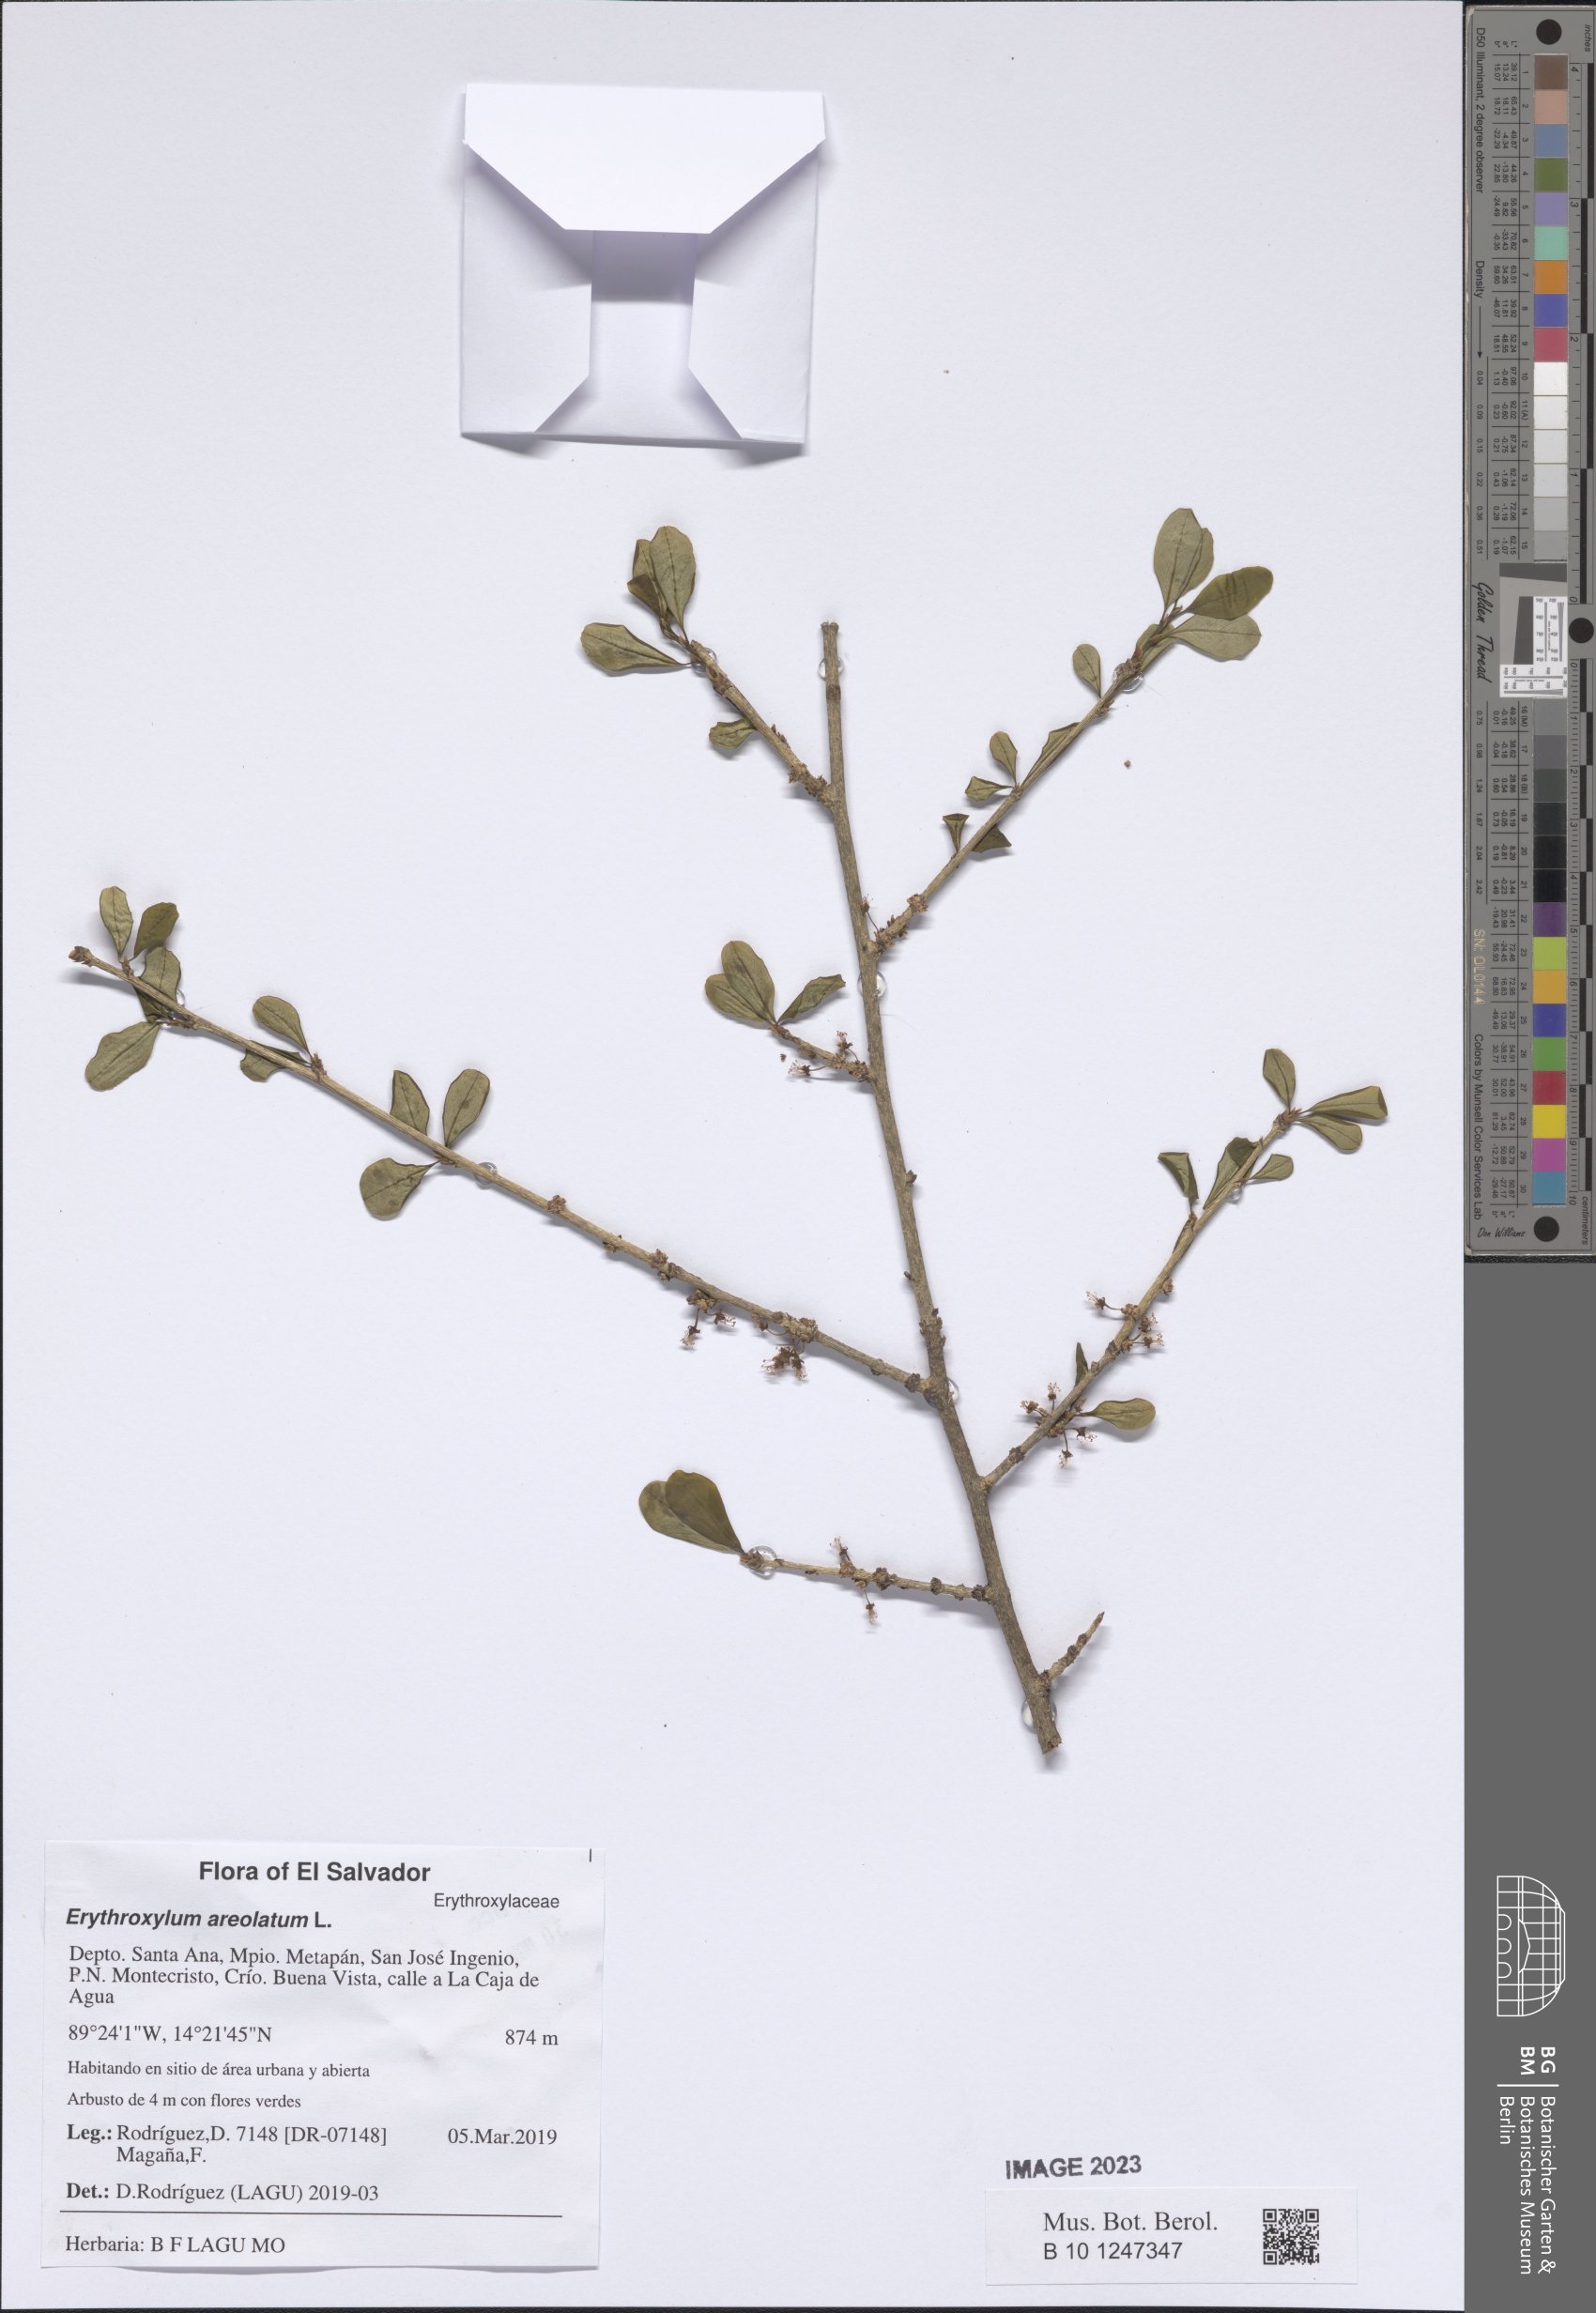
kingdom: Plantae
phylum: Tracheophyta
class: Magnoliopsida
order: Malpighiales
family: Erythroxylaceae
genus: Erythroxylum
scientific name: Erythroxylum areolatum
